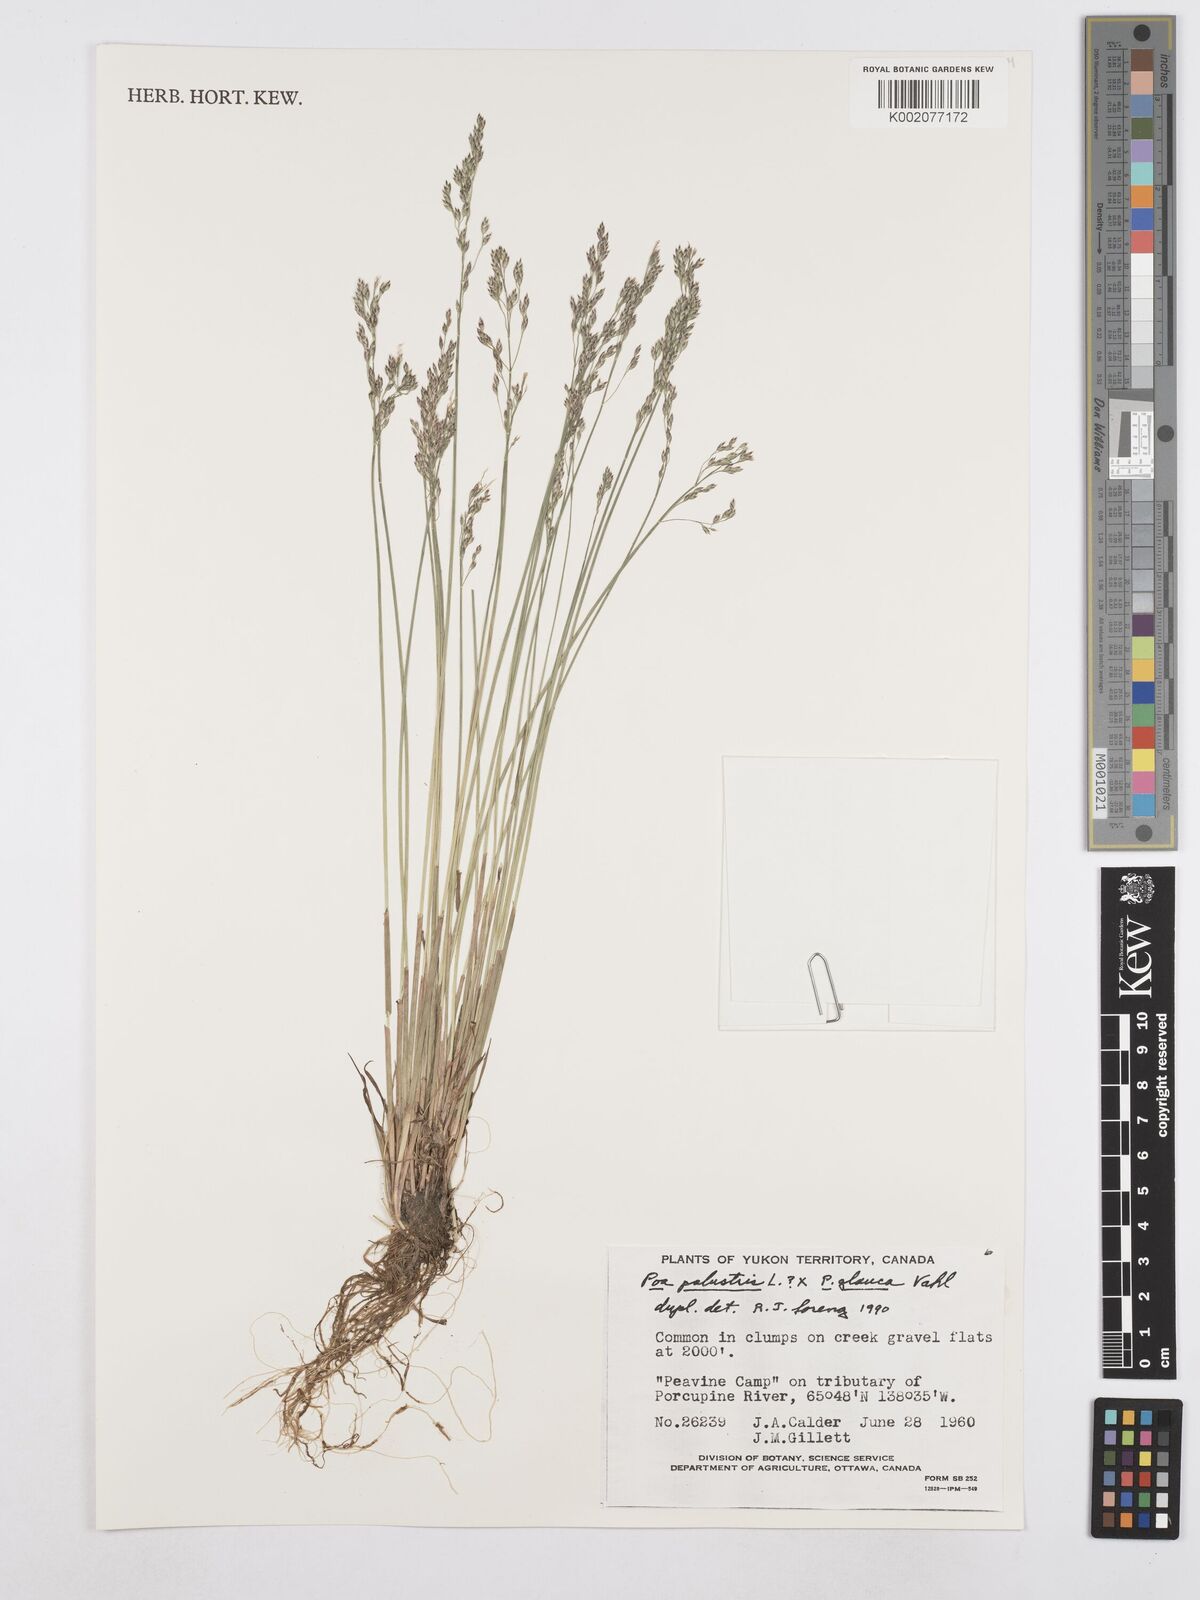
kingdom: Plantae
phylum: Tracheophyta
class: Liliopsida
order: Poales
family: Poaceae
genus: Poa
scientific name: Poa palustris
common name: Swamp meadow-grass
